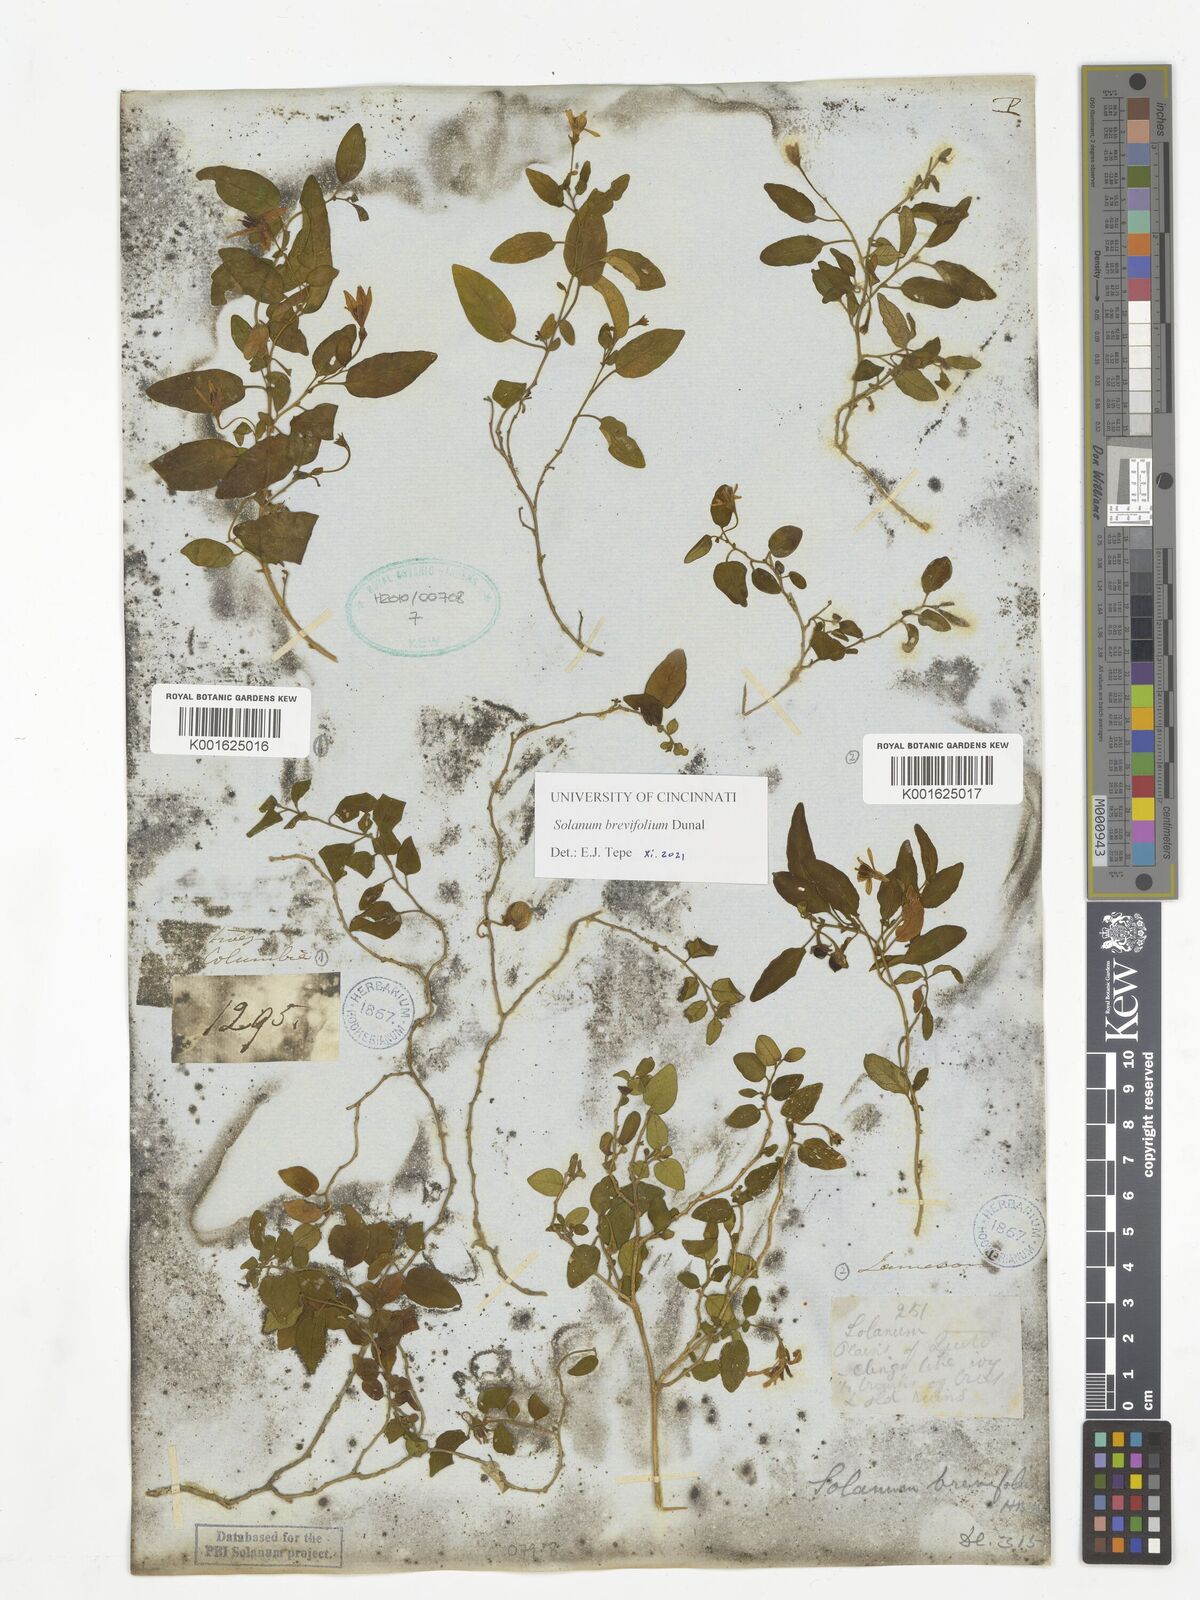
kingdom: Plantae
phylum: Tracheophyta
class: Magnoliopsida
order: Solanales
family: Solanaceae
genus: Solanum
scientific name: Solanum brevifolium
